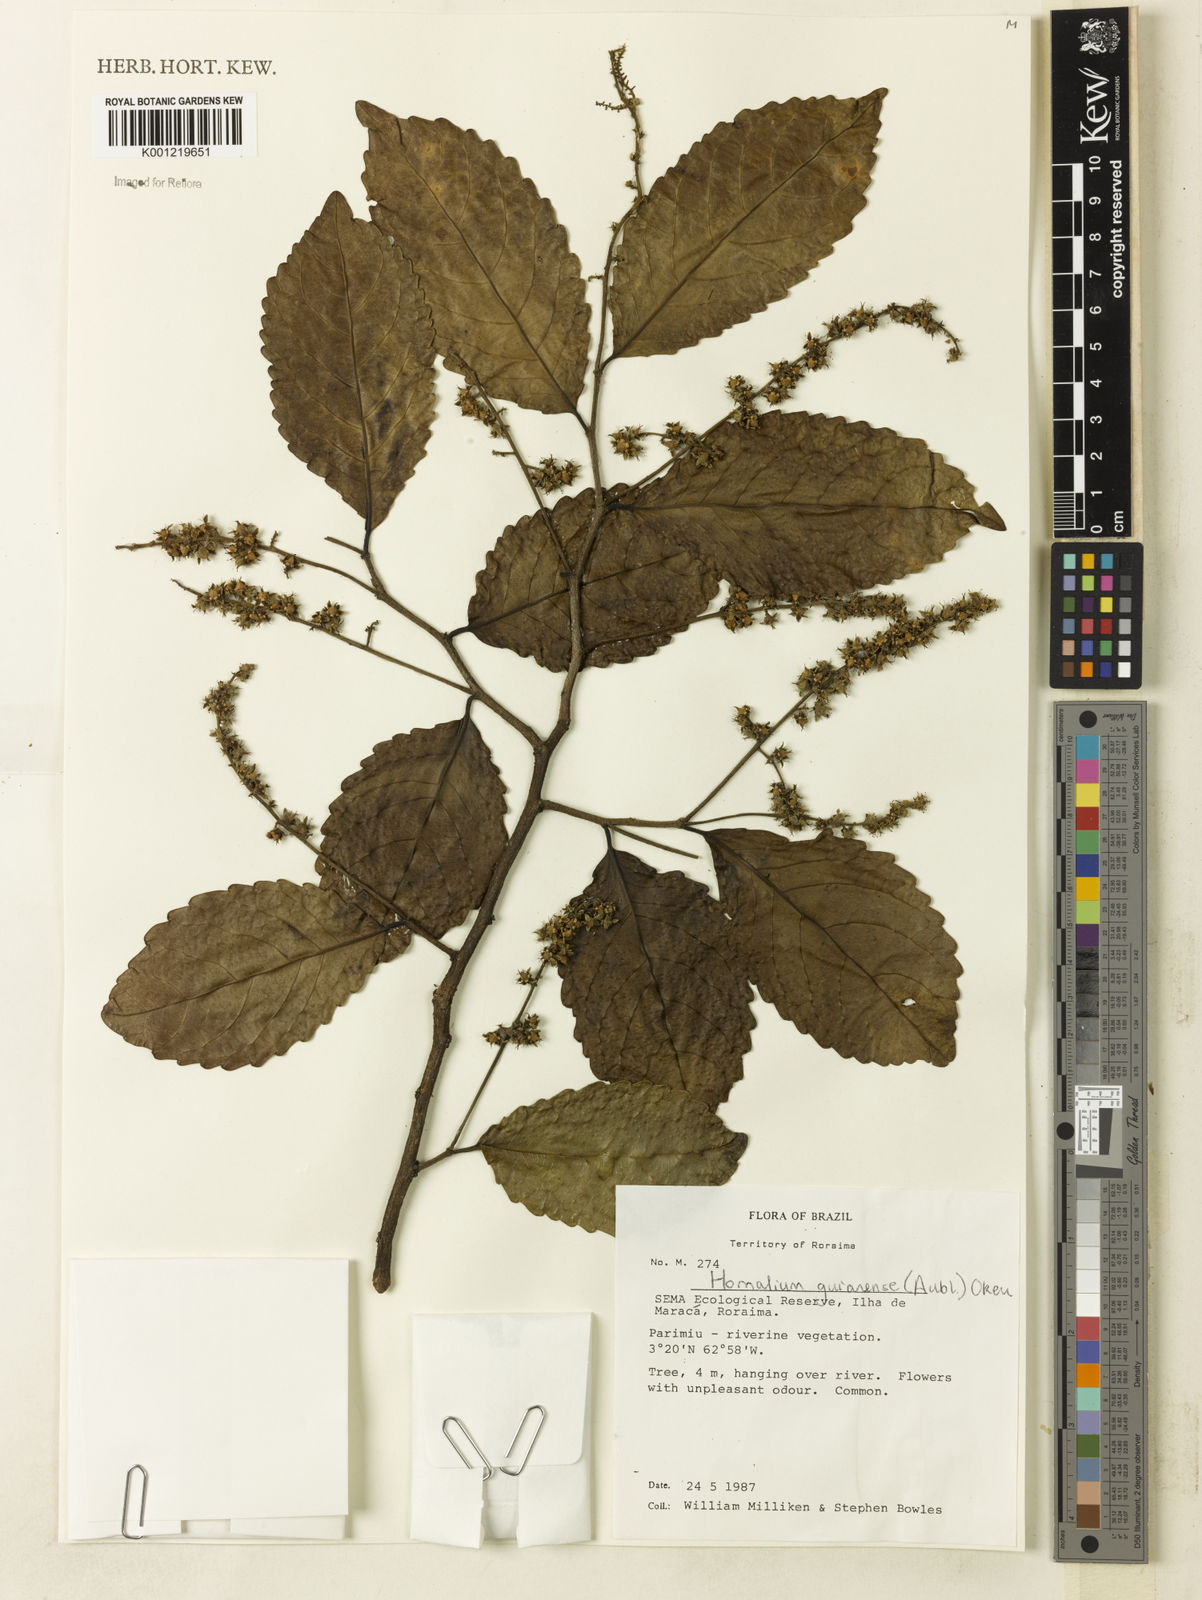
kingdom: Plantae
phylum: Tracheophyta
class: Magnoliopsida
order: Malpighiales
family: Salicaceae
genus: Homalium
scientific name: Homalium guianense
